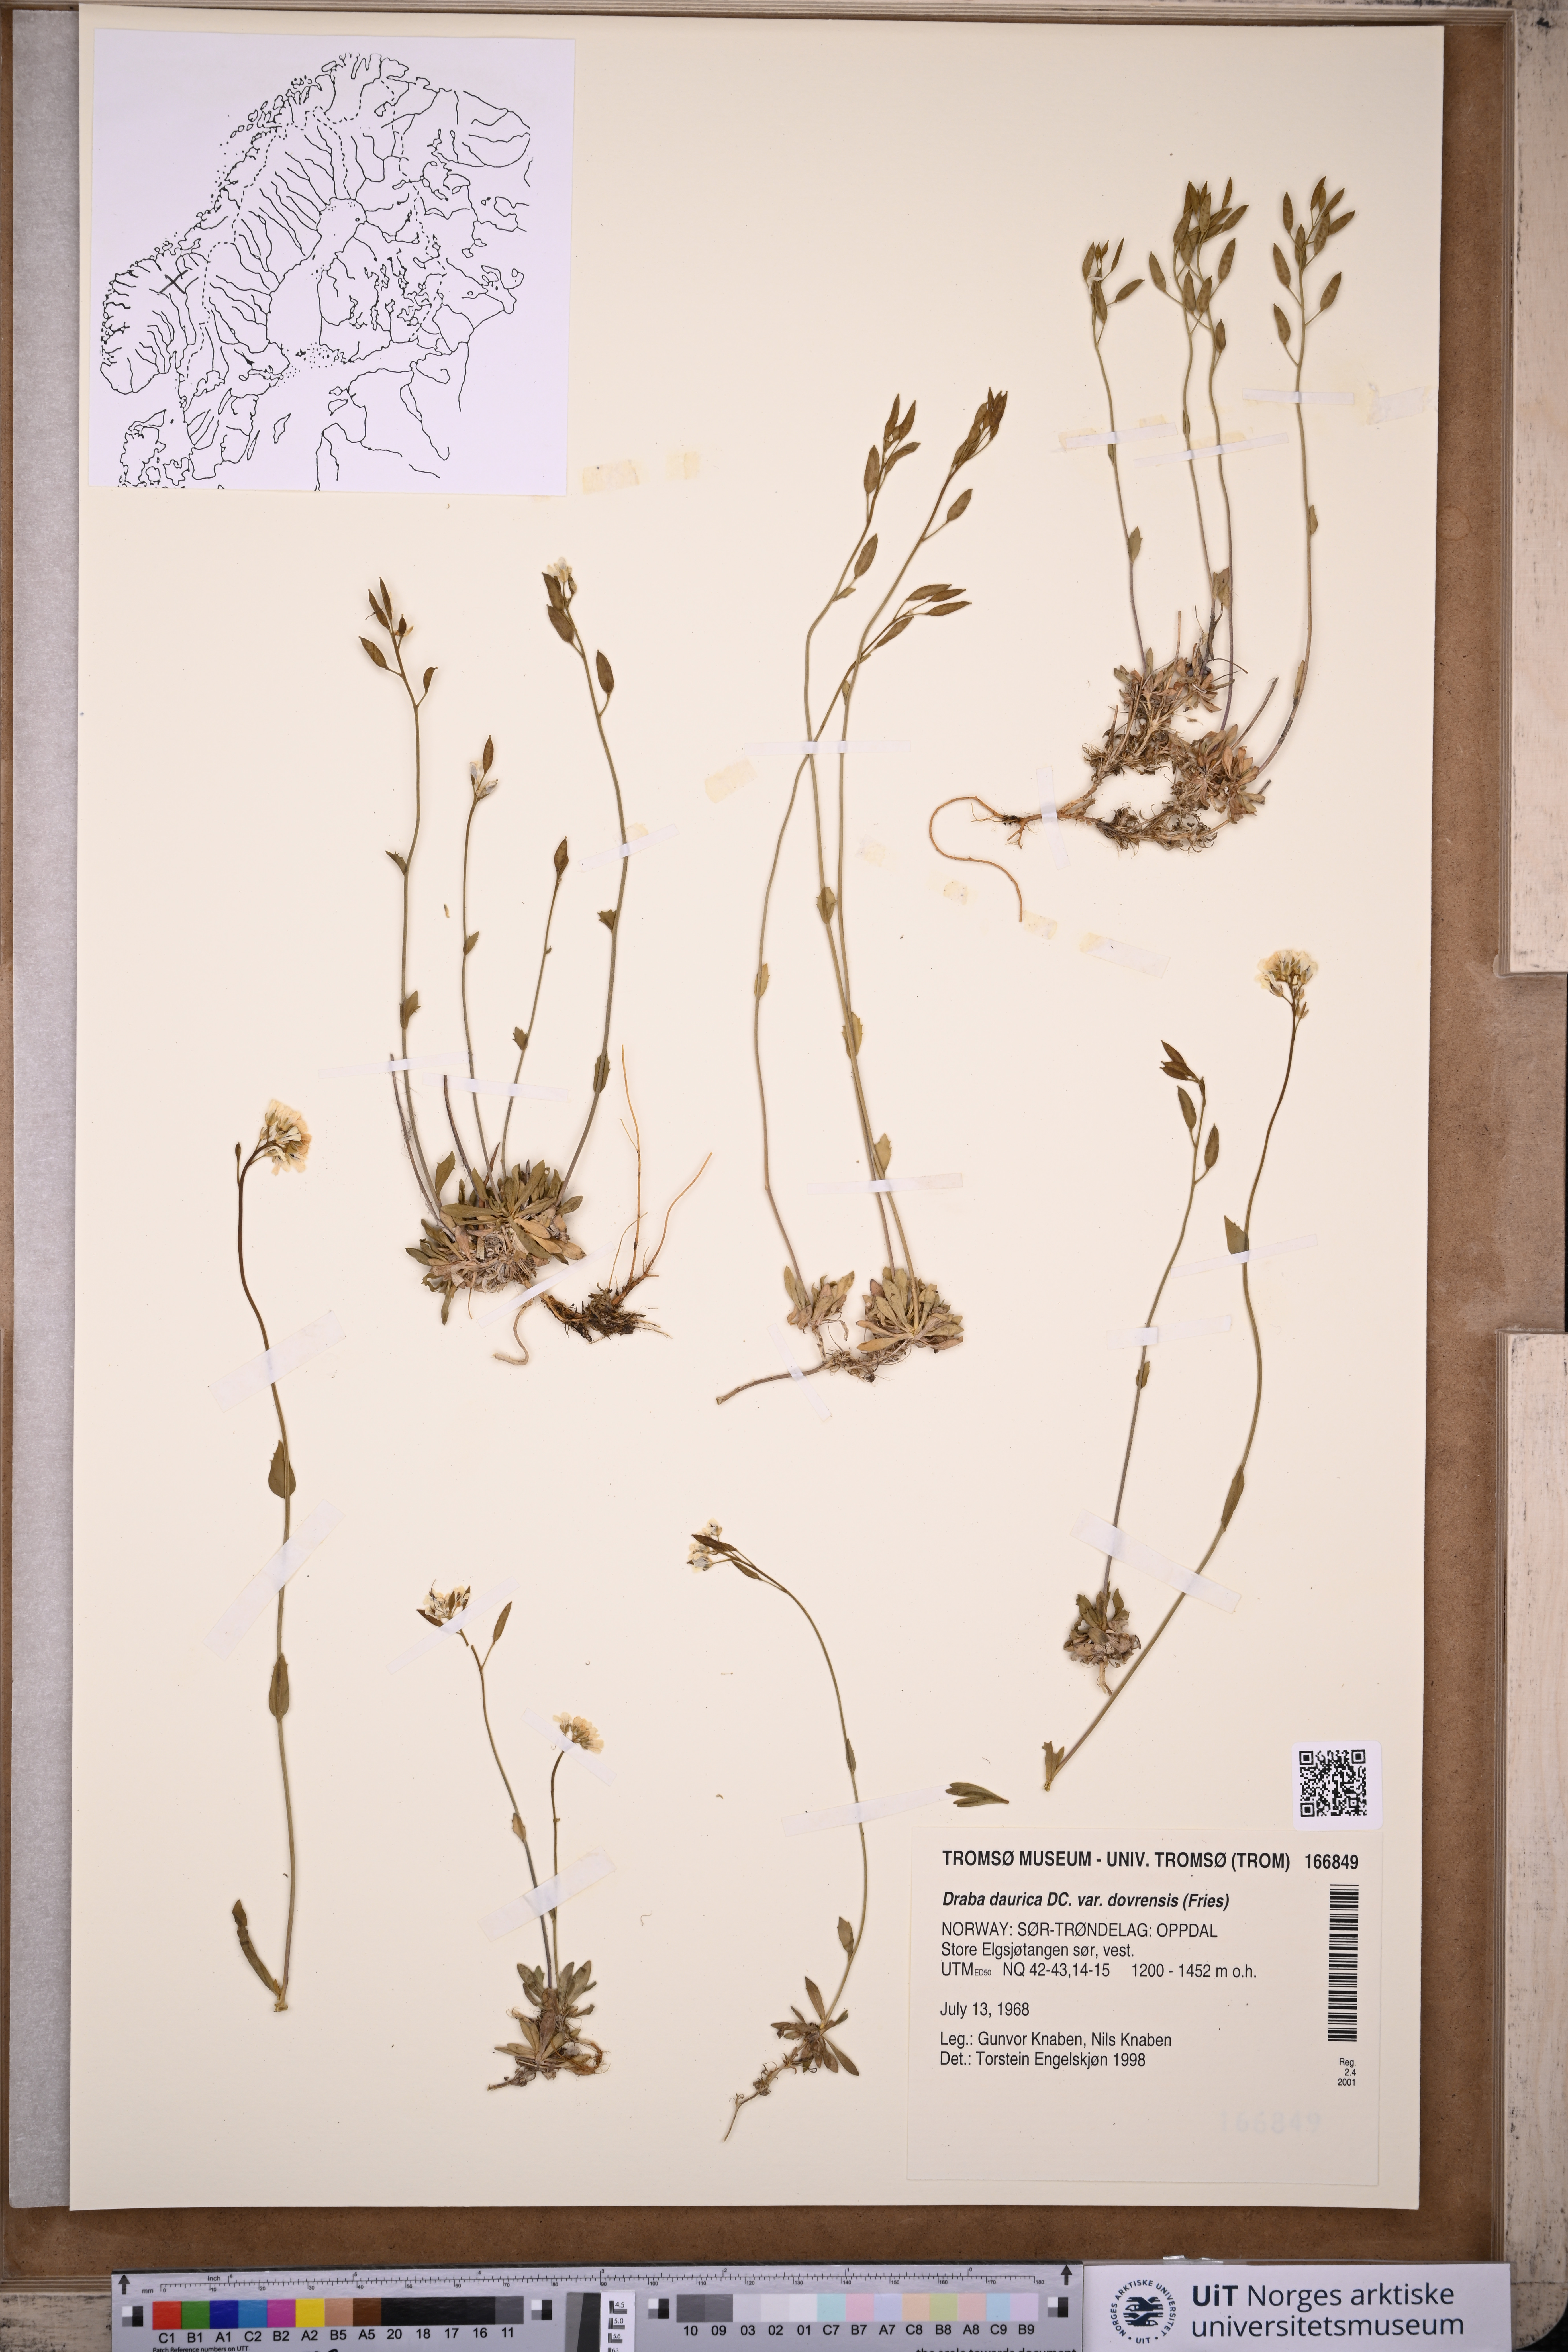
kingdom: Plantae
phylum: Tracheophyta
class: Magnoliopsida
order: Brassicales
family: Brassicaceae
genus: Draba
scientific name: Draba glabella
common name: Glaucous draba
